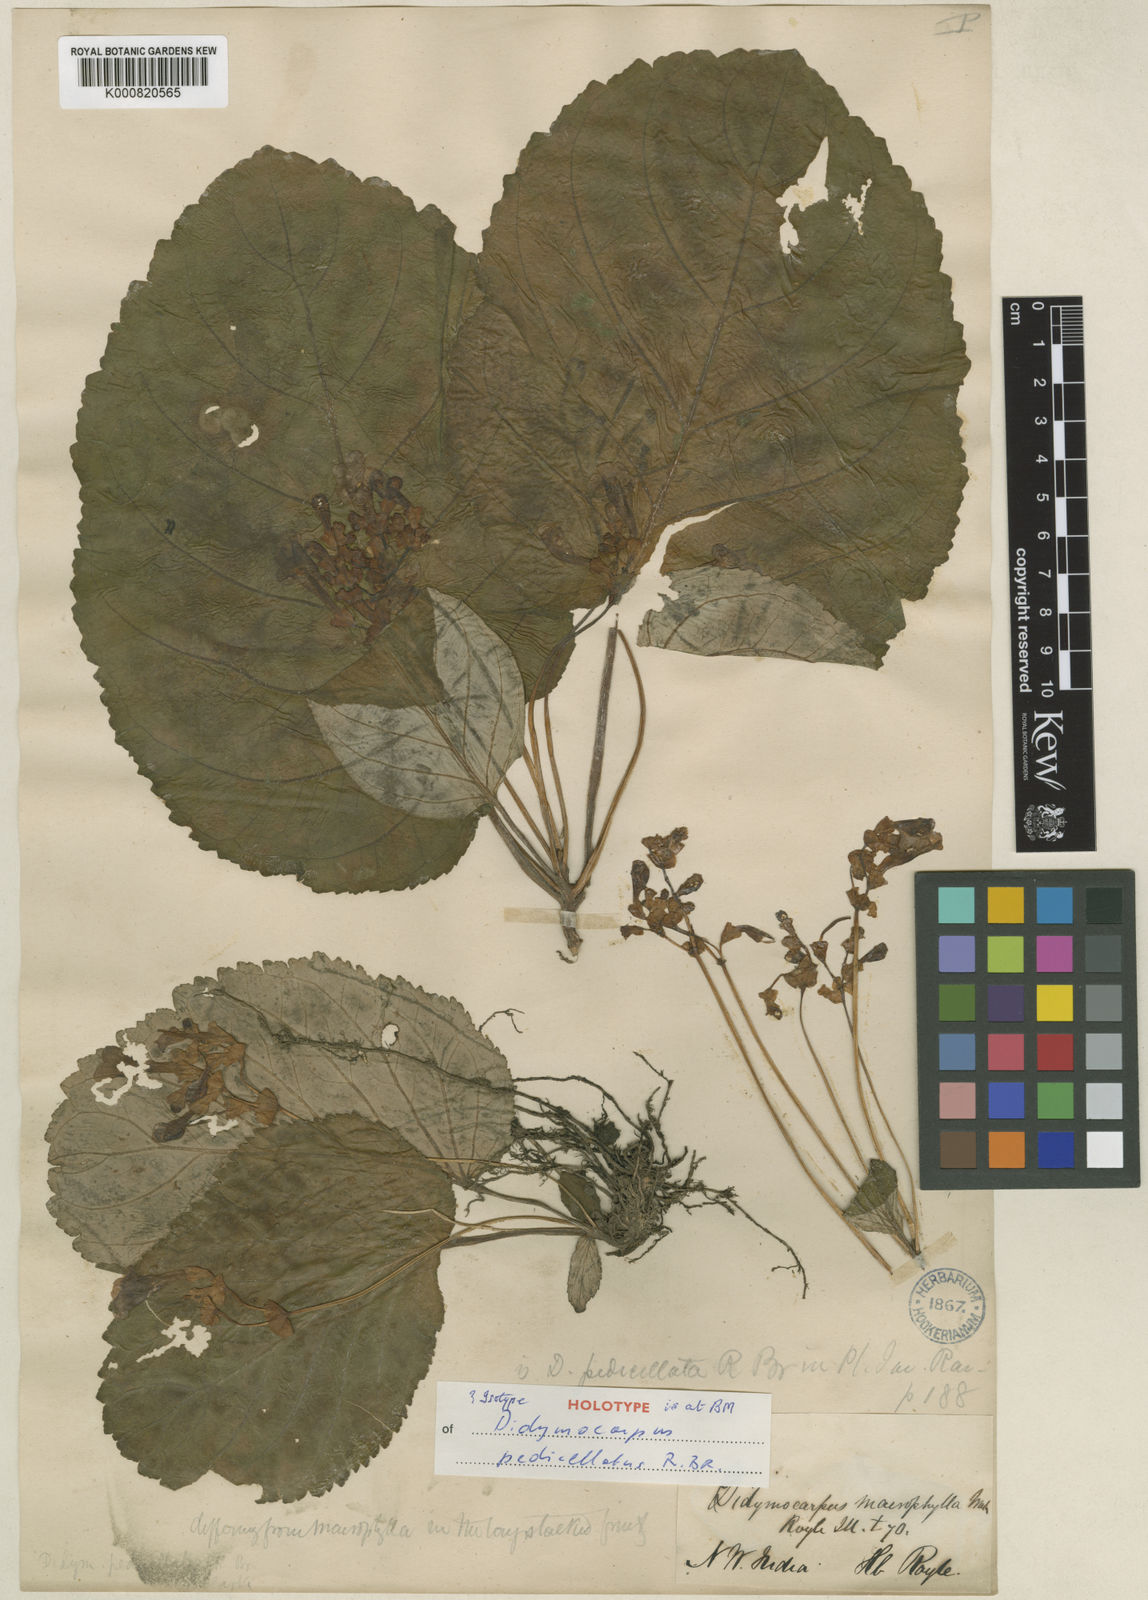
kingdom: Plantae
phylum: Tracheophyta
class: Magnoliopsida
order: Lamiales
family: Gesneriaceae
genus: Didymocarpus
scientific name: Didymocarpus pedicellatus
